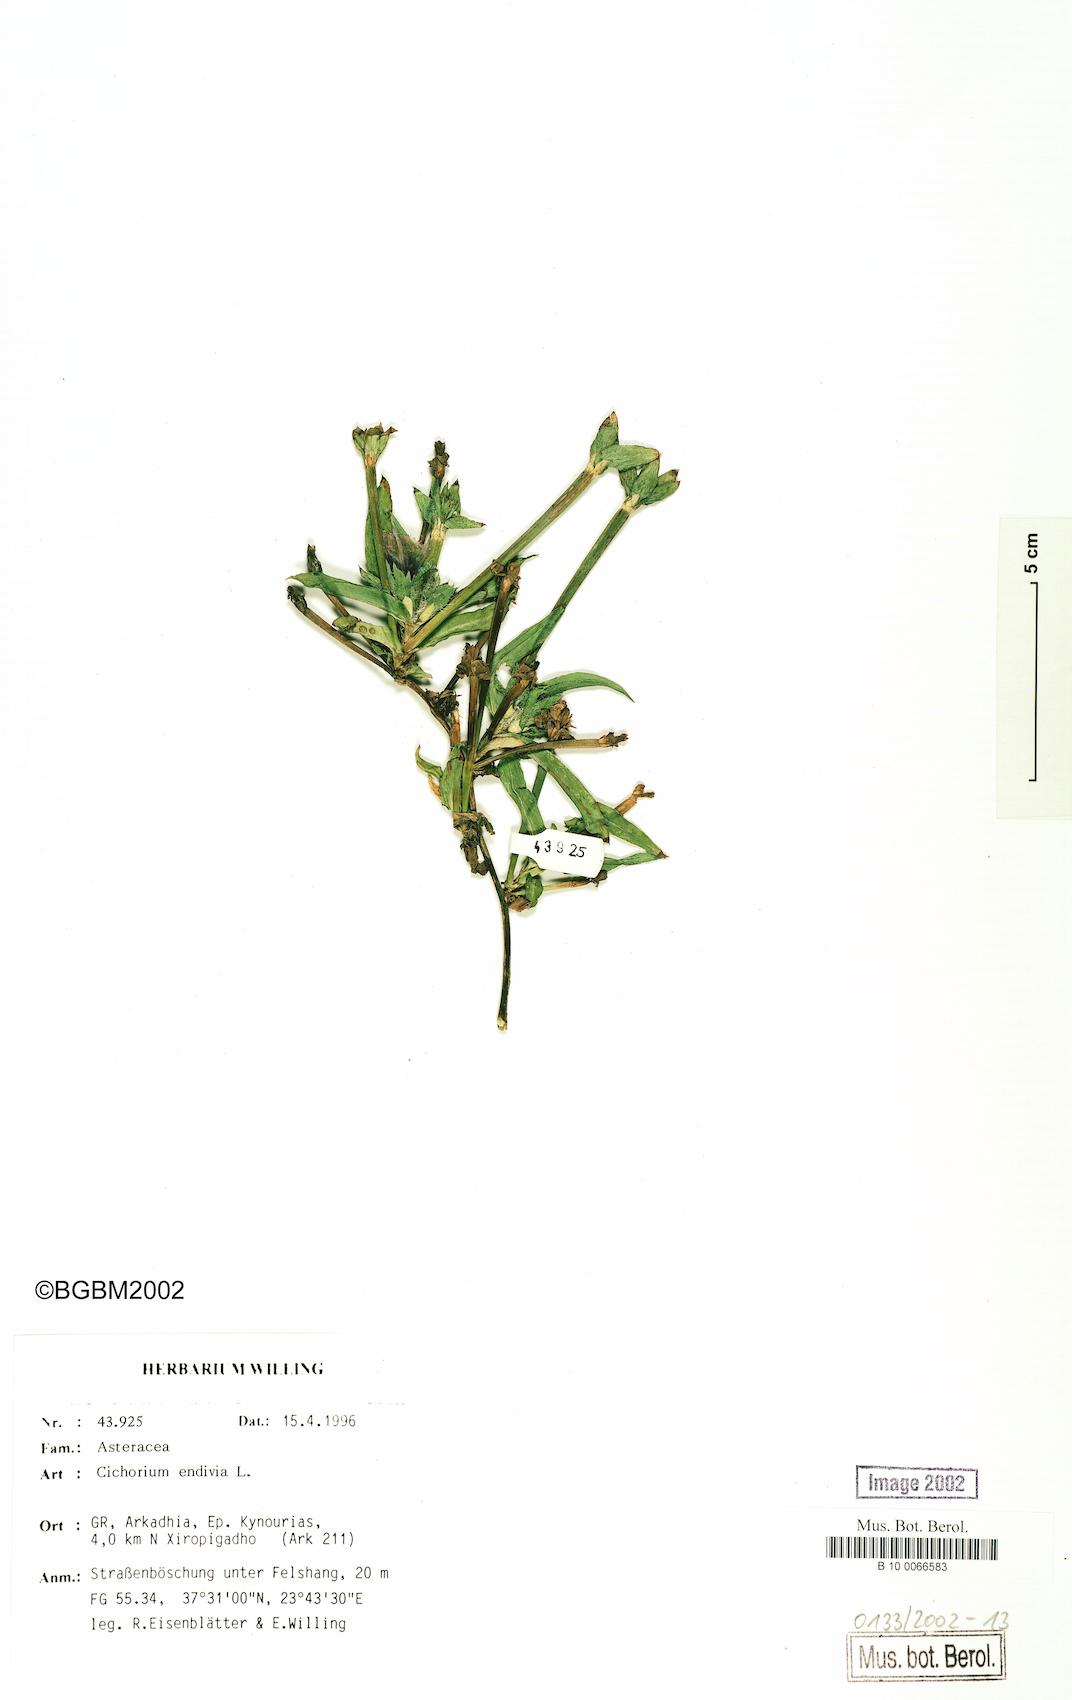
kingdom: Plantae
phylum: Tracheophyta
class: Magnoliopsida
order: Asterales
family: Asteraceae
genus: Cichorium
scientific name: Cichorium endivia
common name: Endive
